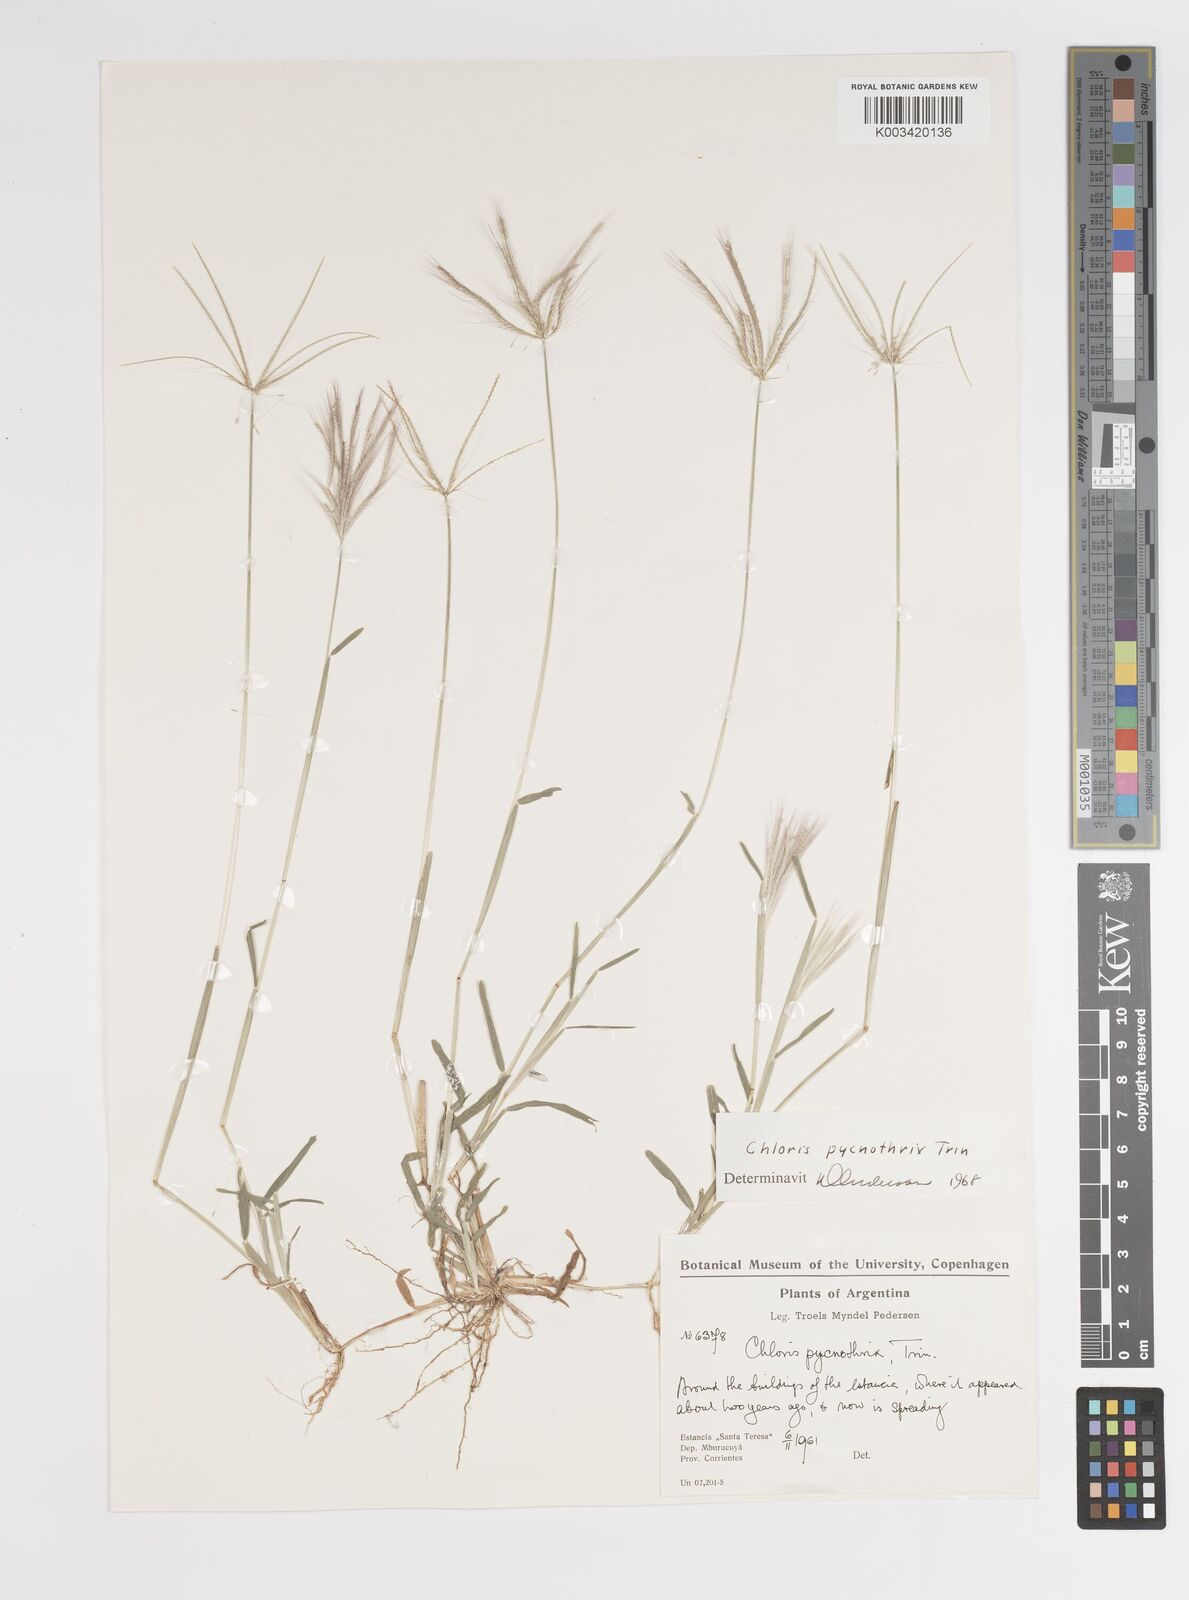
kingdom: Plantae
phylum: Tracheophyta
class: Liliopsida
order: Poales
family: Poaceae
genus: Chloris
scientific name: Chloris pycnothrix
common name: Spiderweb chloris
